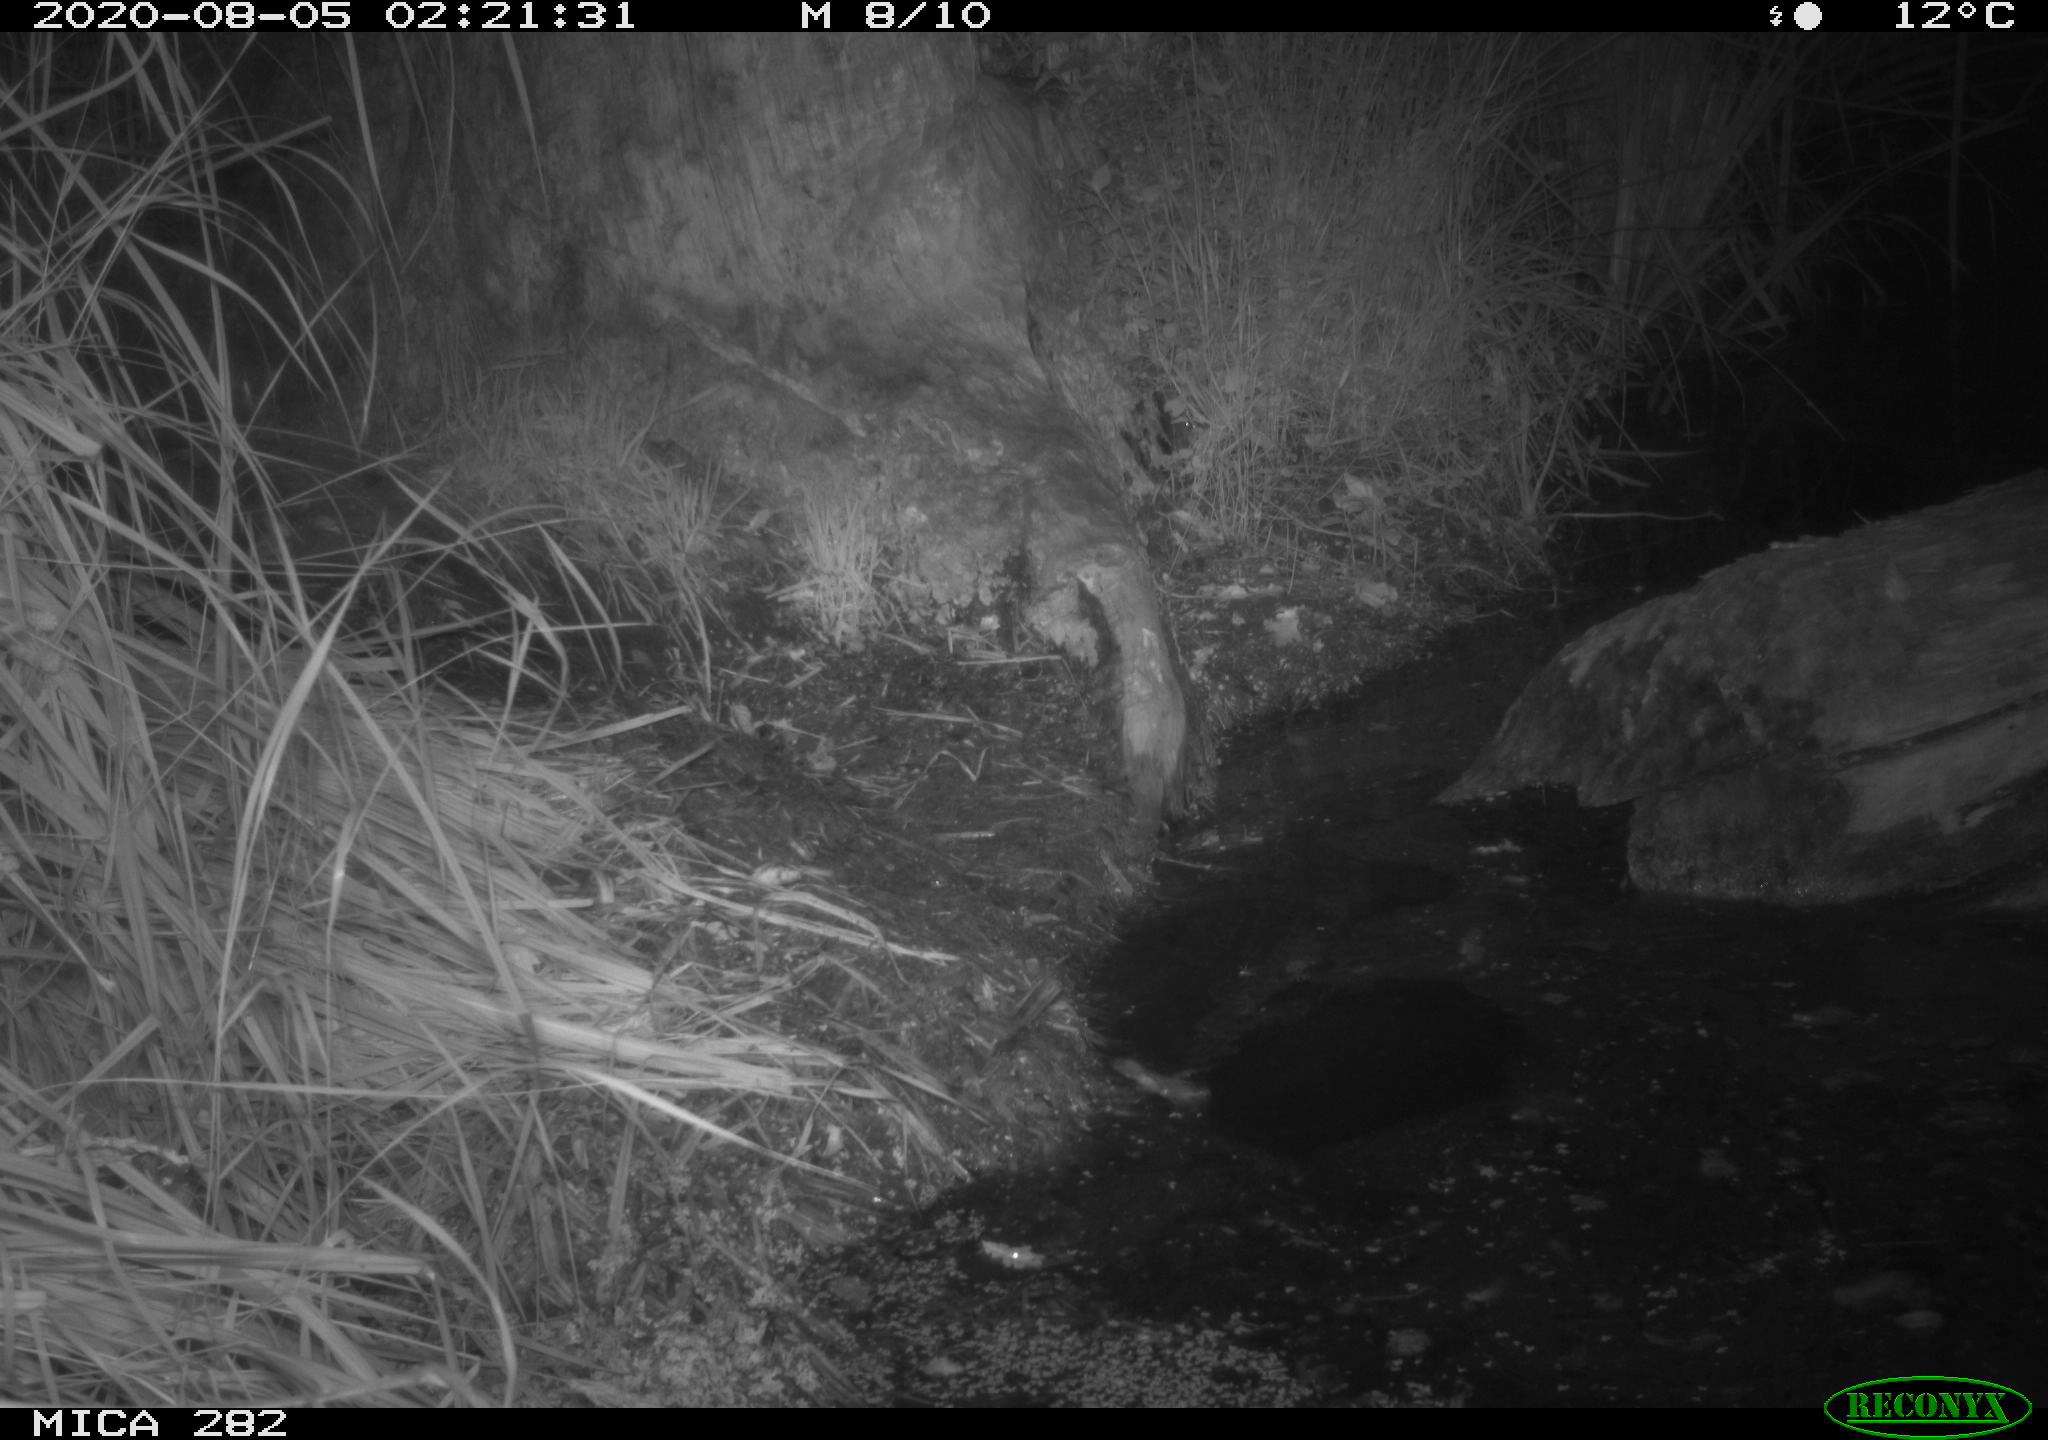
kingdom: Animalia
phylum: Chordata
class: Mammalia
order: Rodentia
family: Castoridae
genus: Castor
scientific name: Castor fiber
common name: Eurasian beaver
